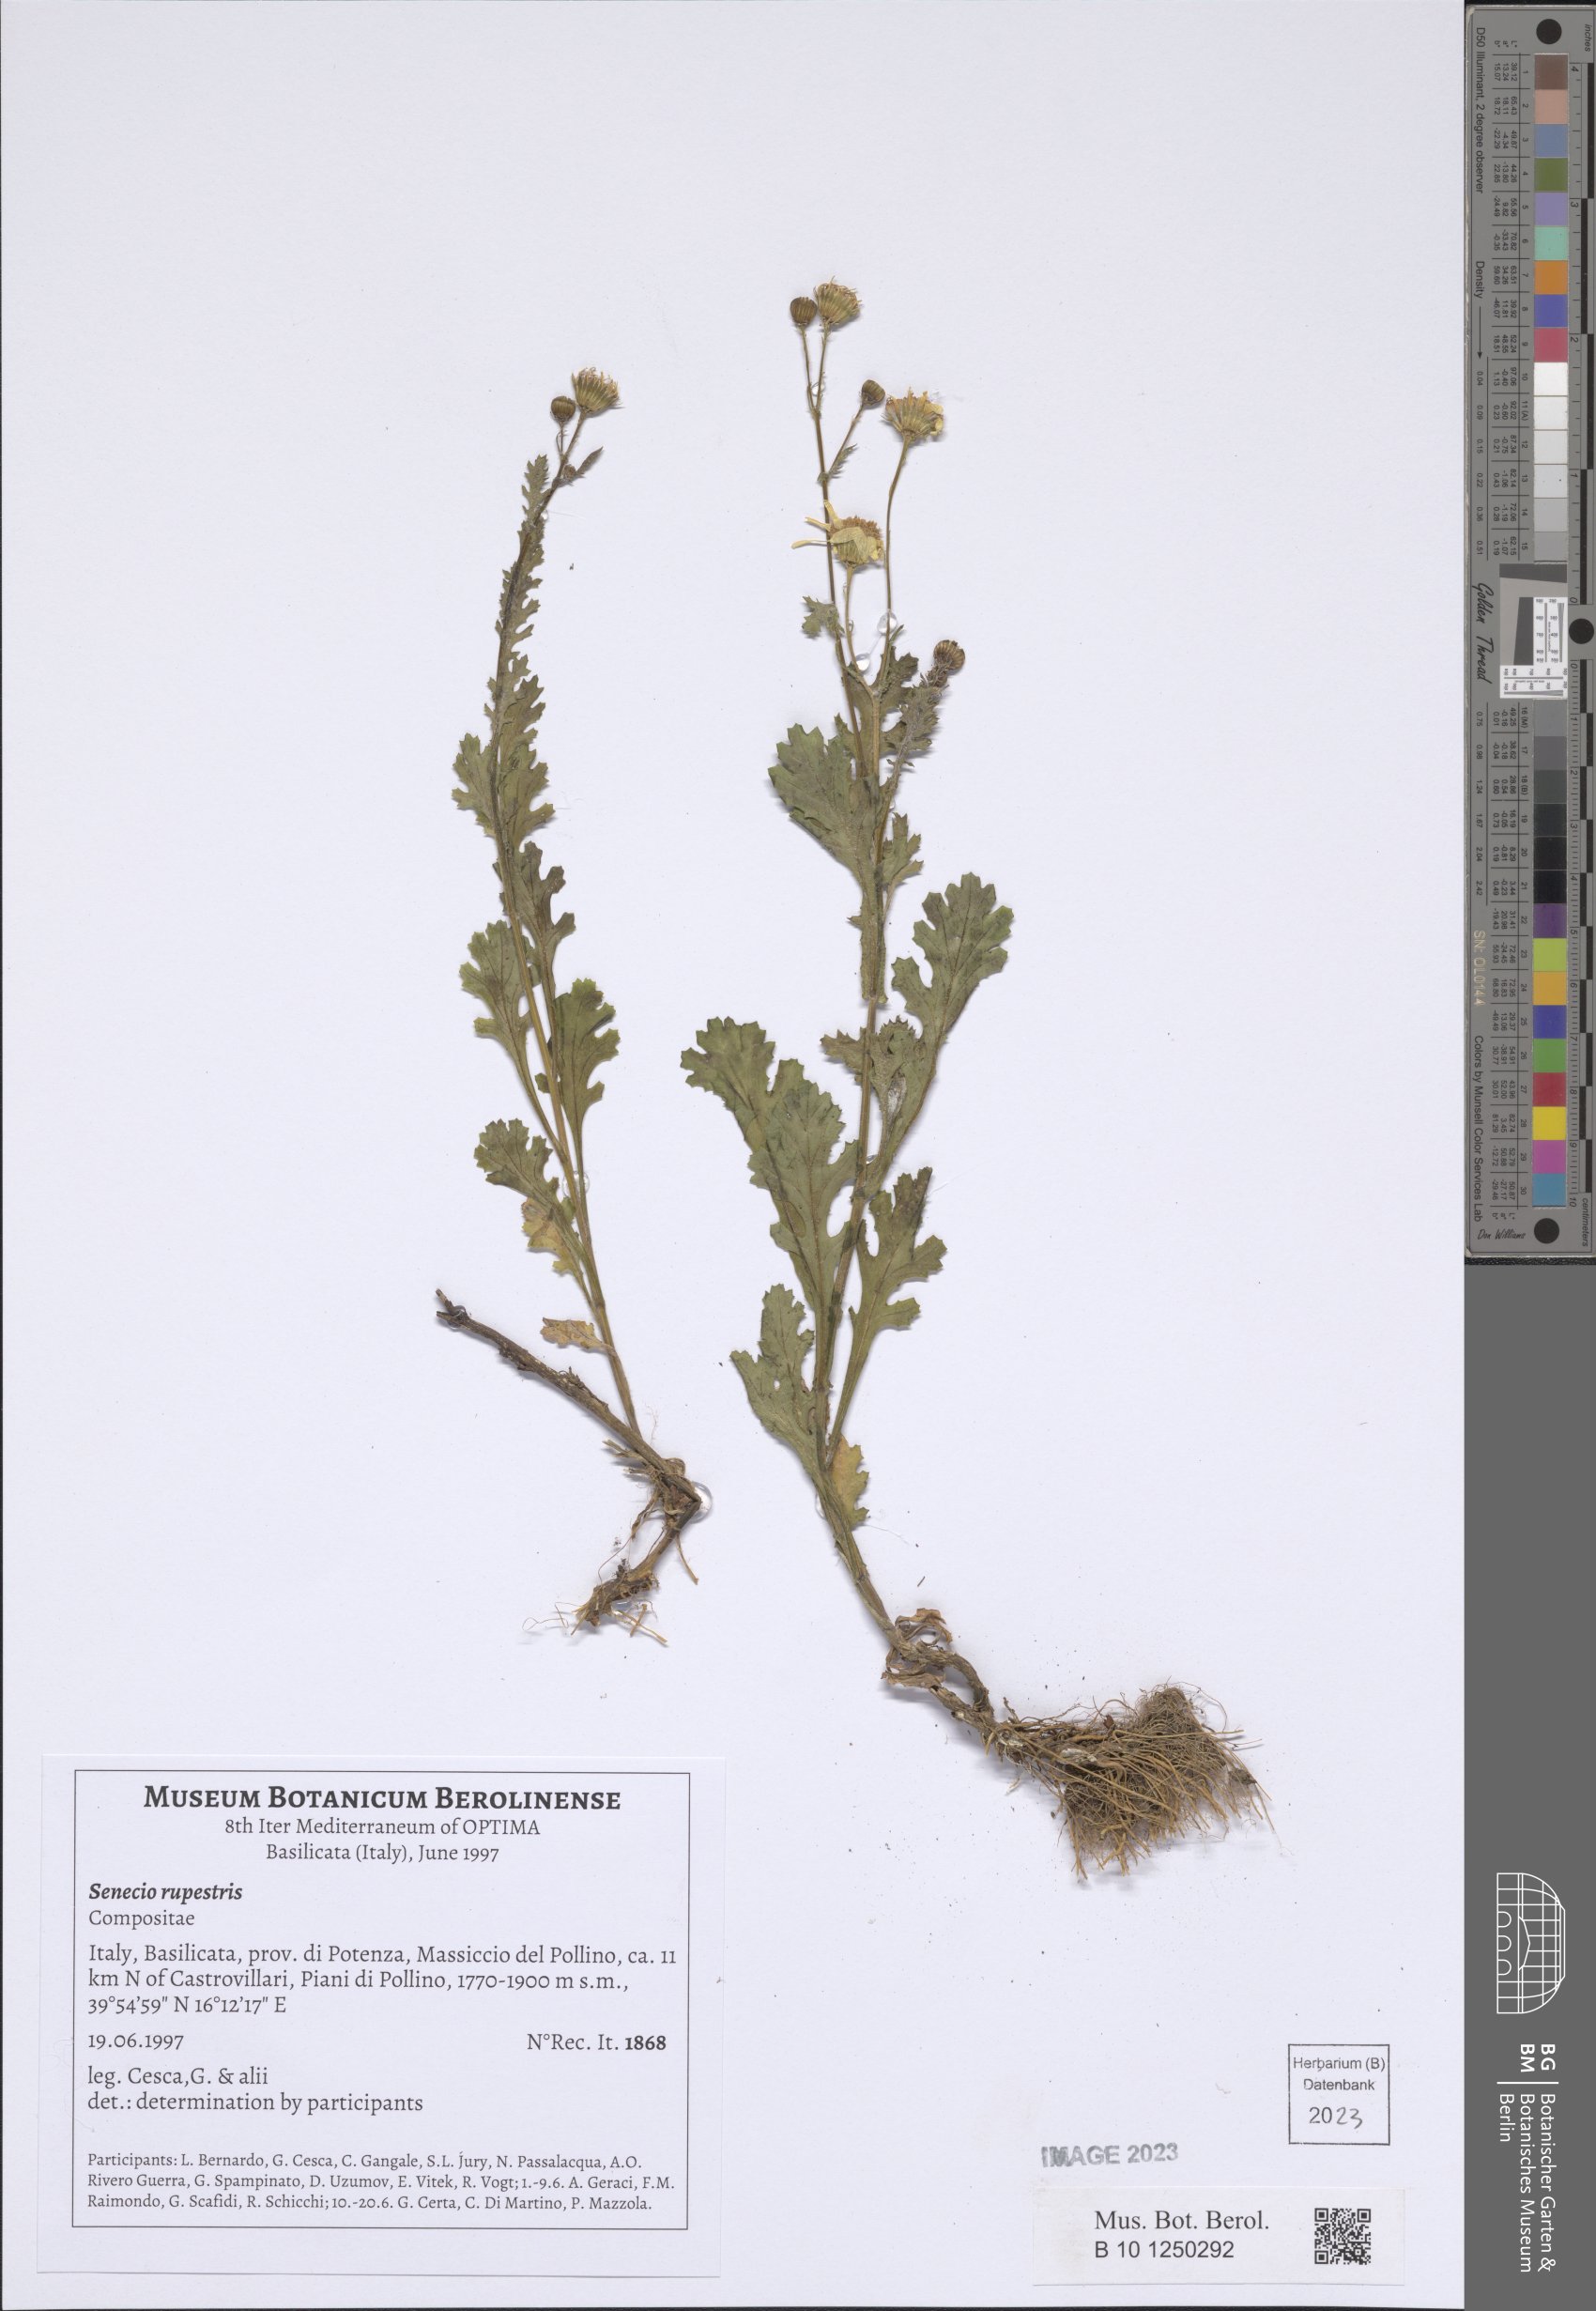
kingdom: Plantae
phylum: Tracheophyta
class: Magnoliopsida
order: Asterales
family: Asteraceae
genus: Senecio
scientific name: Senecio rupestris
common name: Rock ragwort
